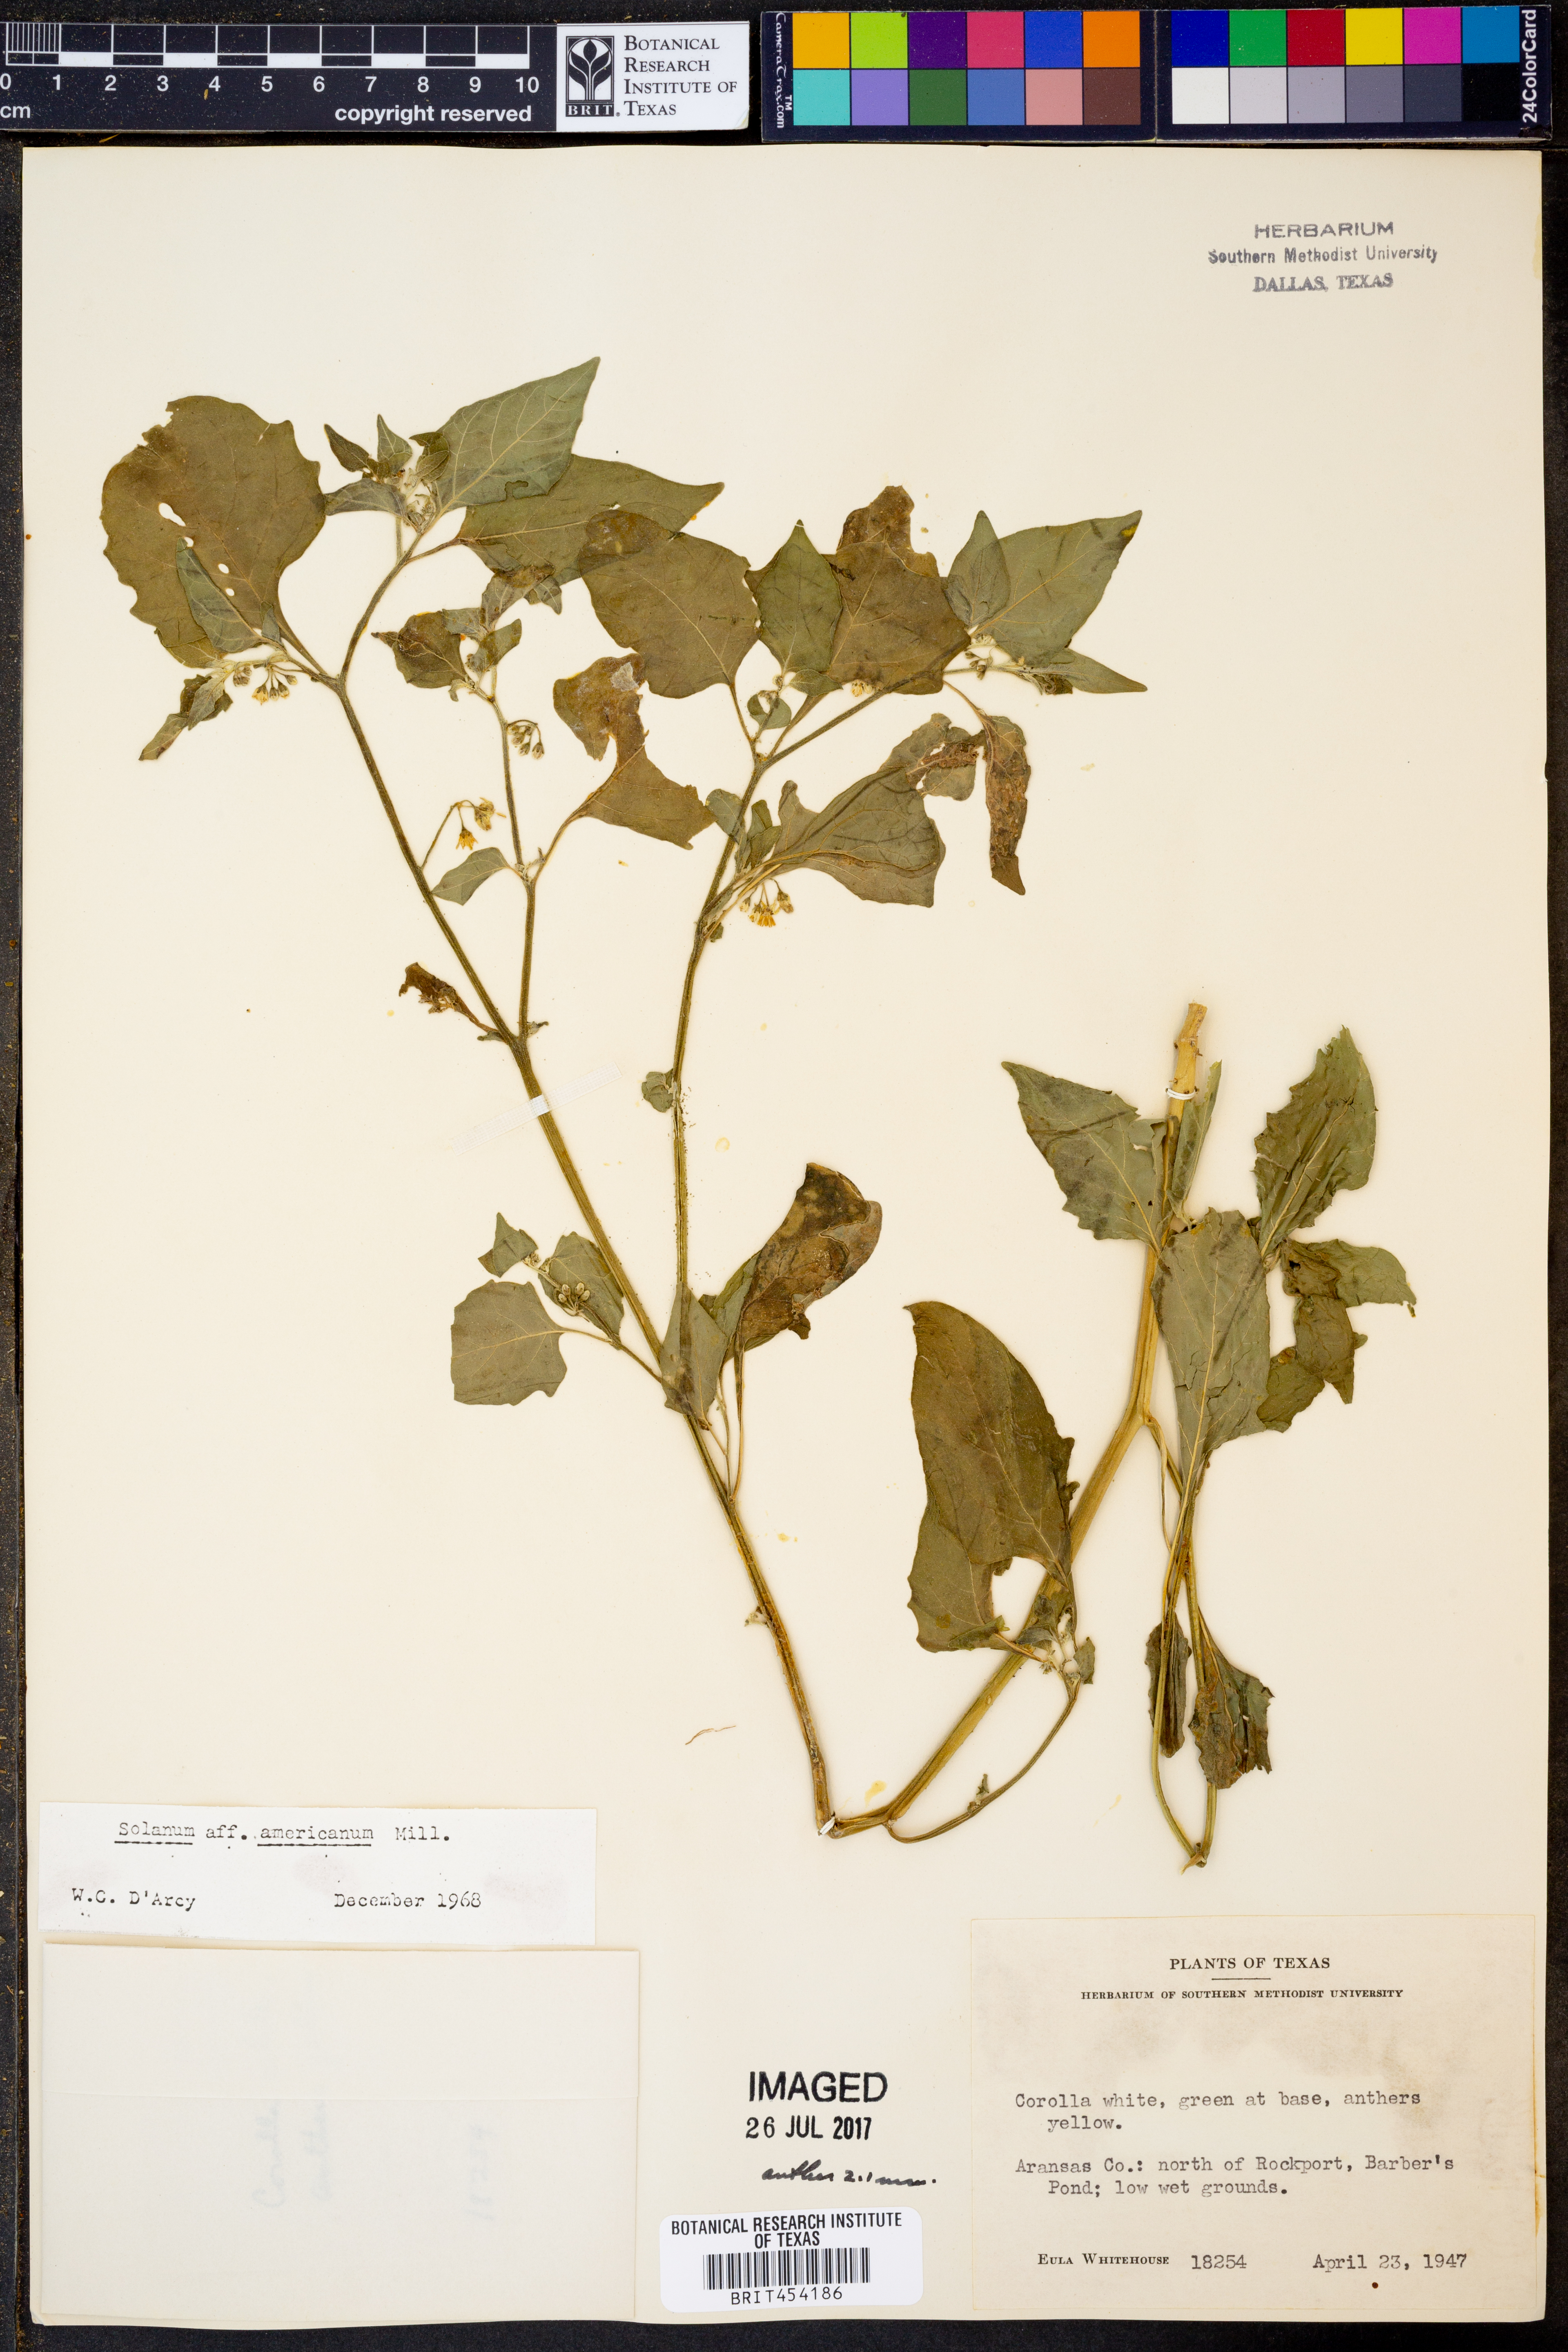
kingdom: Plantae
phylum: Tracheophyta
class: Magnoliopsida
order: Solanales
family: Solanaceae
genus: Solanum
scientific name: Solanum americanum
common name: American black nightshade
